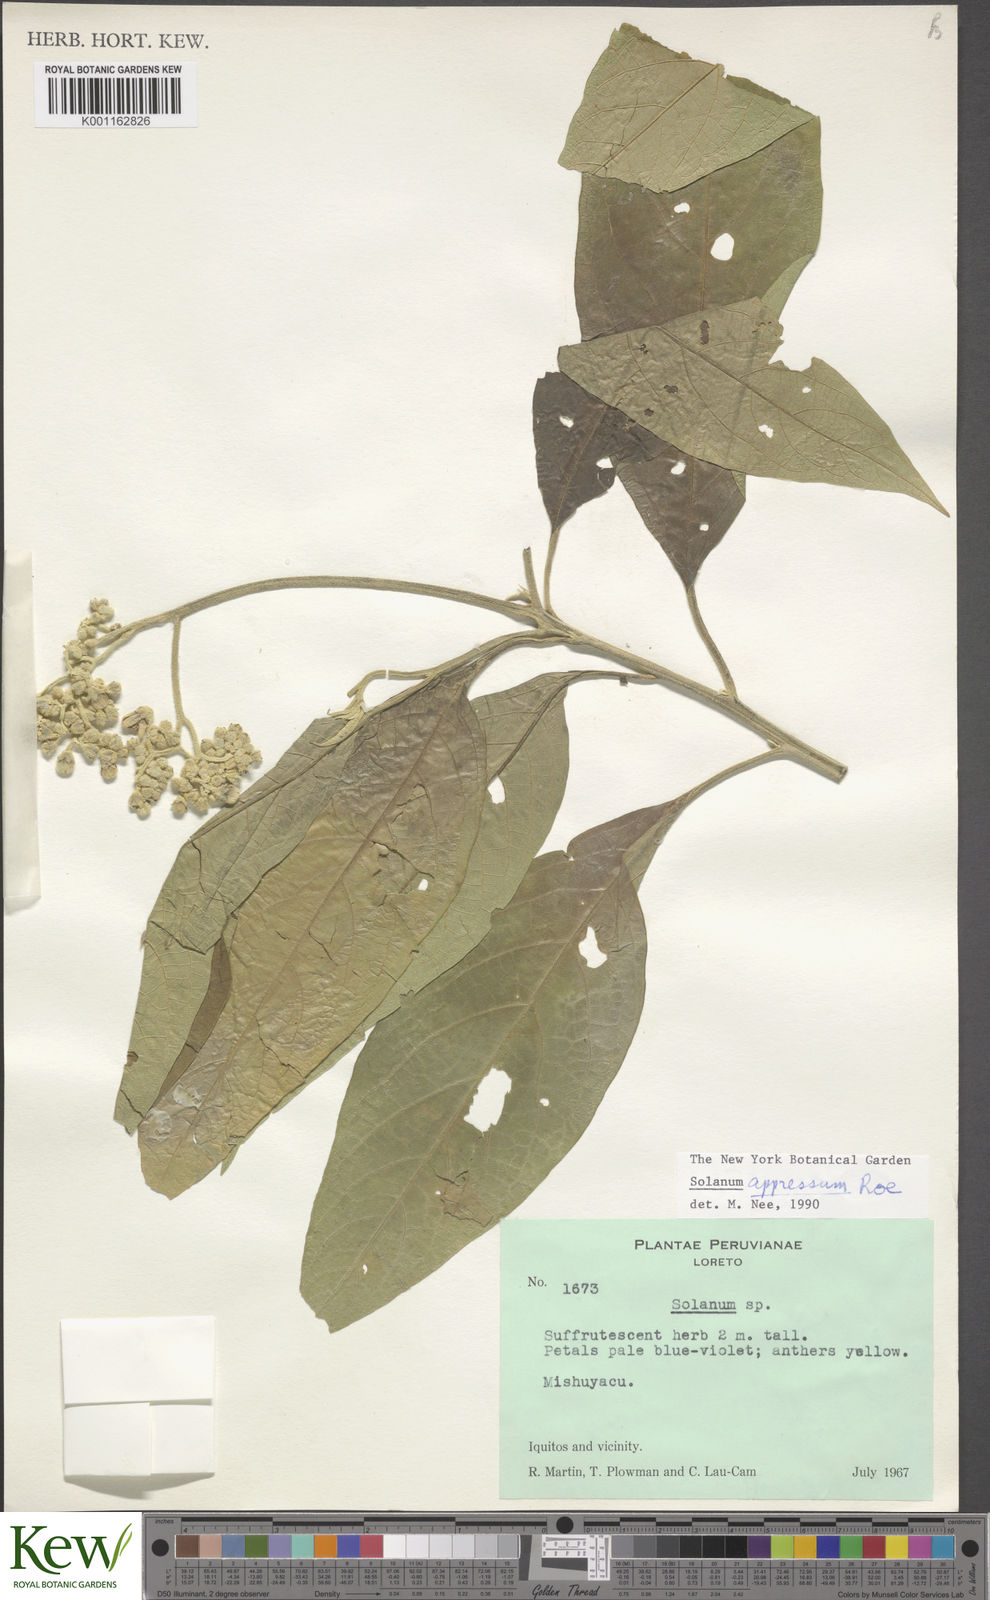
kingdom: Plantae
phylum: Tracheophyta
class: Magnoliopsida
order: Solanales
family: Solanaceae
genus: Solanum
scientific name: Solanum appressum
